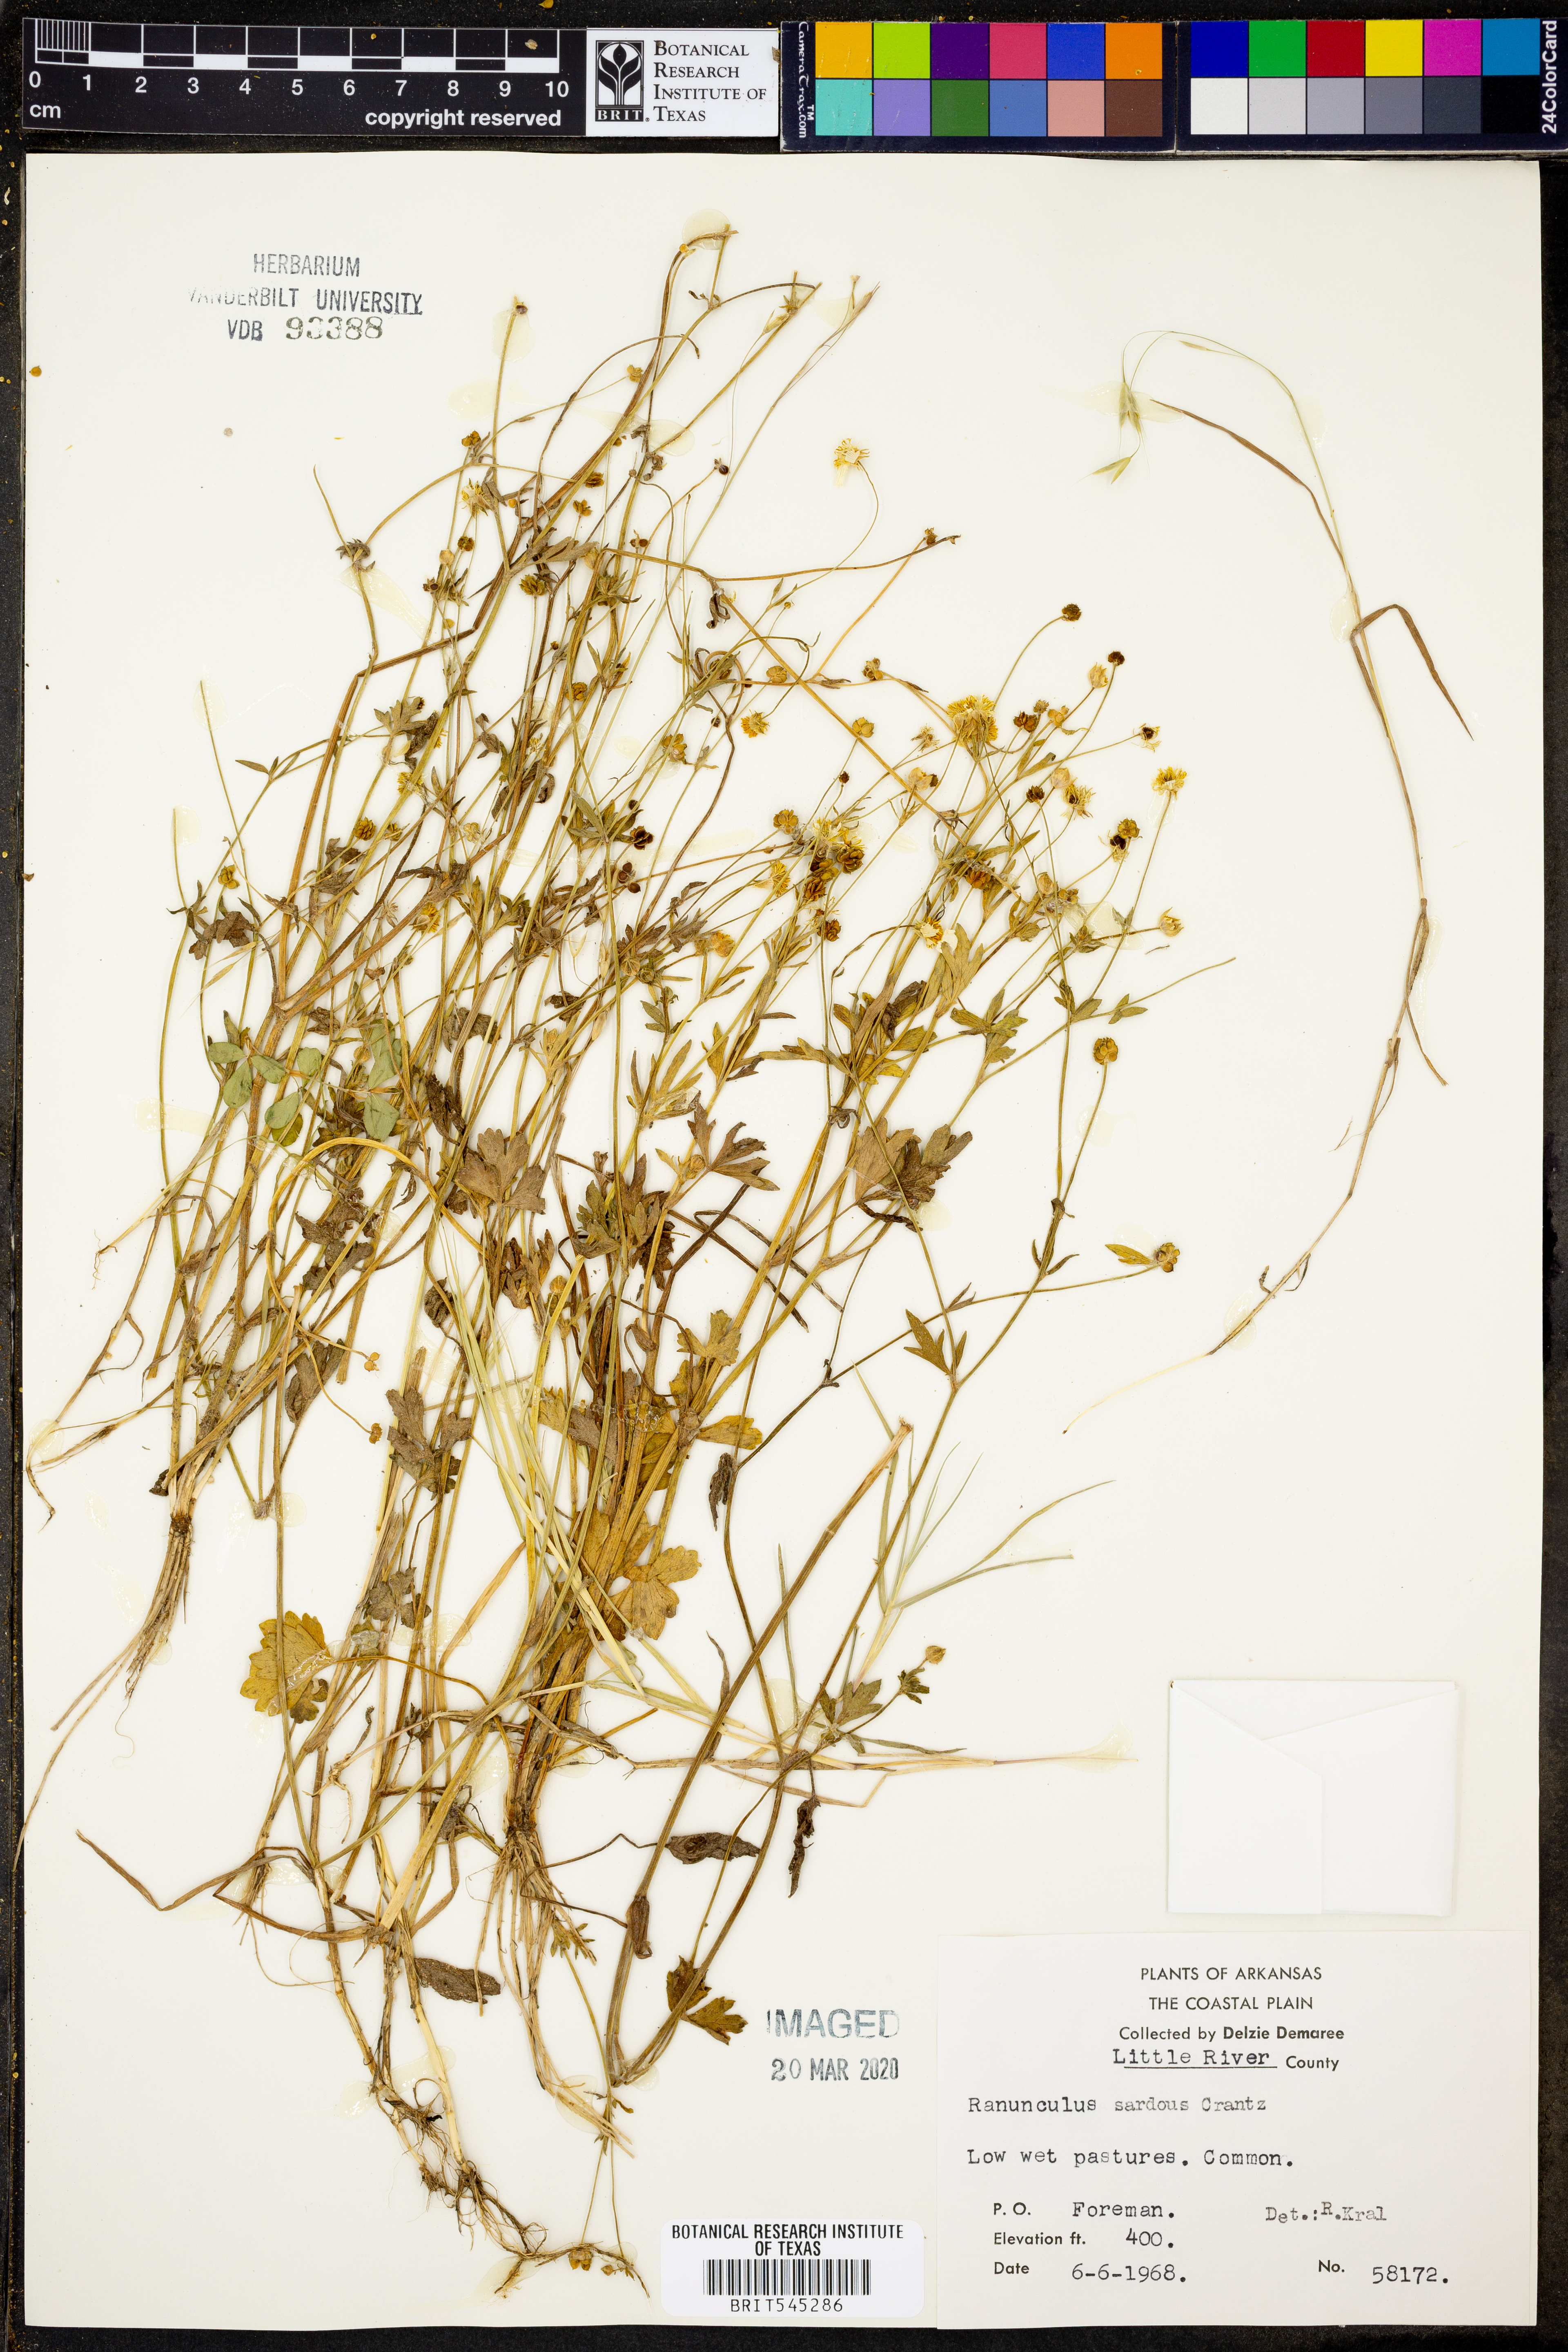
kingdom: Plantae
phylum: Tracheophyta
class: Magnoliopsida
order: Ranunculales
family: Ranunculaceae
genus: Ranunculus
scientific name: Ranunculus sardous
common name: Hairy buttercup
